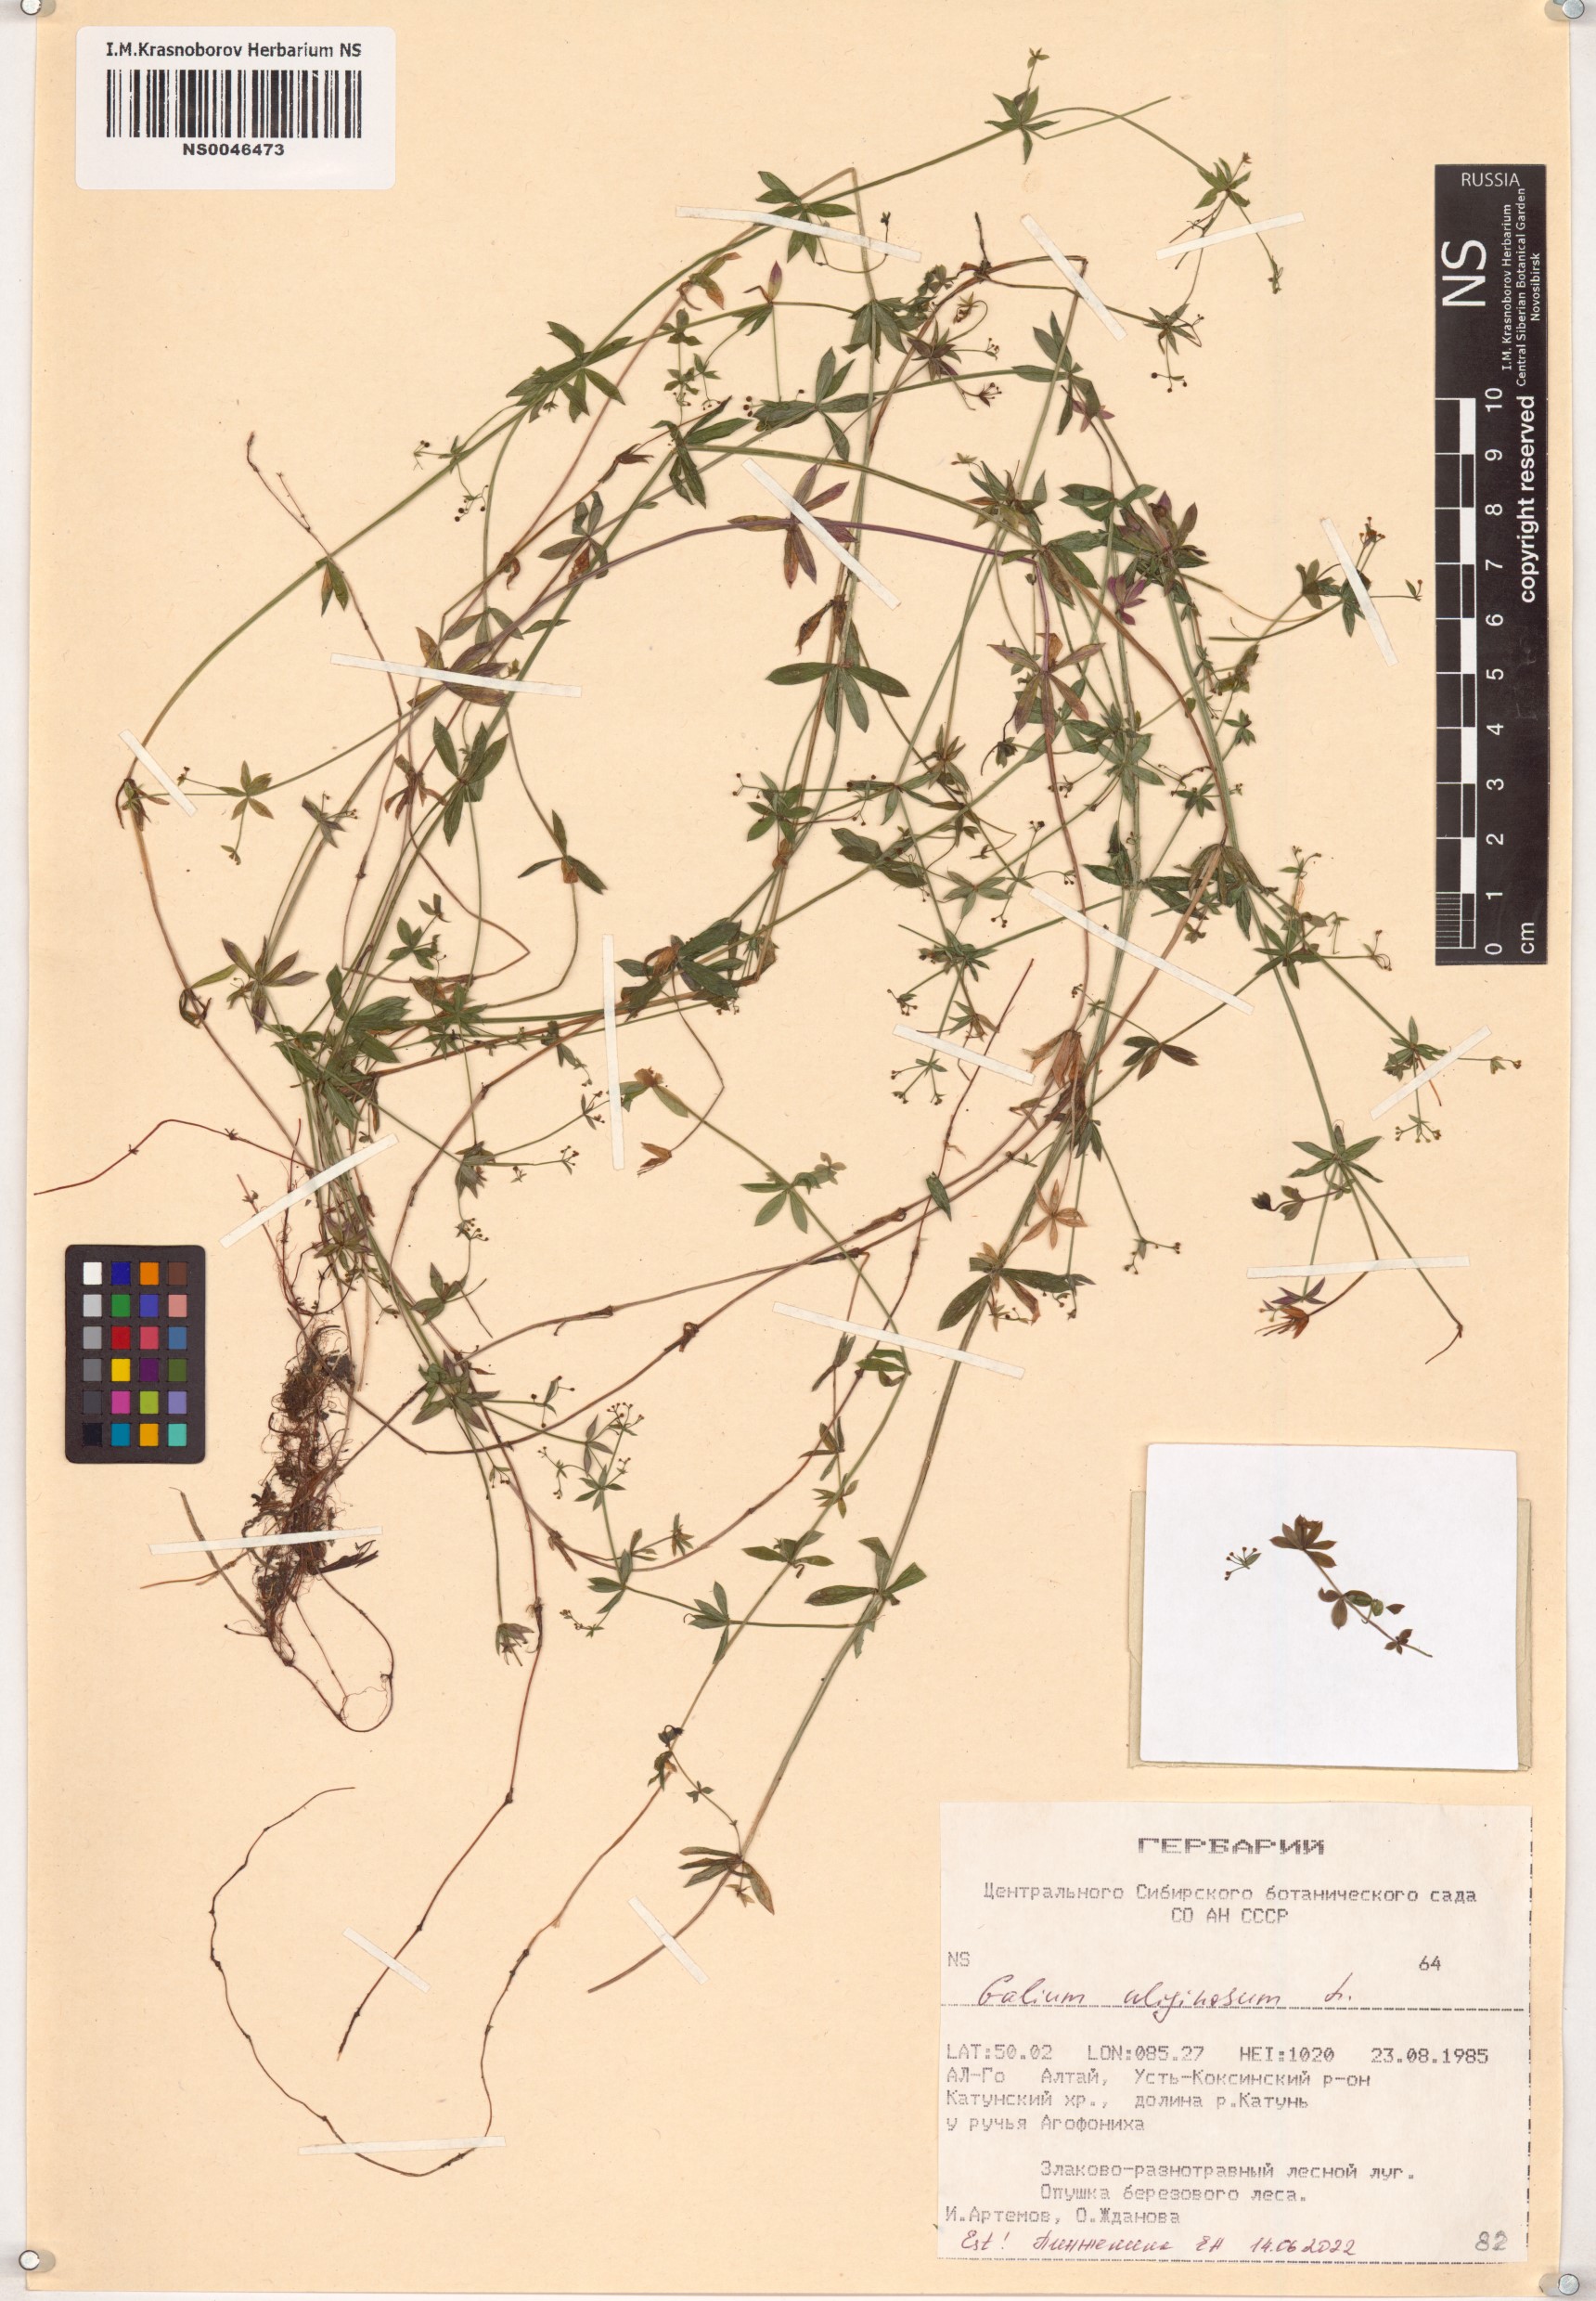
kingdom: Plantae
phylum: Tracheophyta
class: Magnoliopsida
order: Gentianales
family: Rubiaceae
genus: Galium
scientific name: Galium uliginosum
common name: Fen bedstraw
